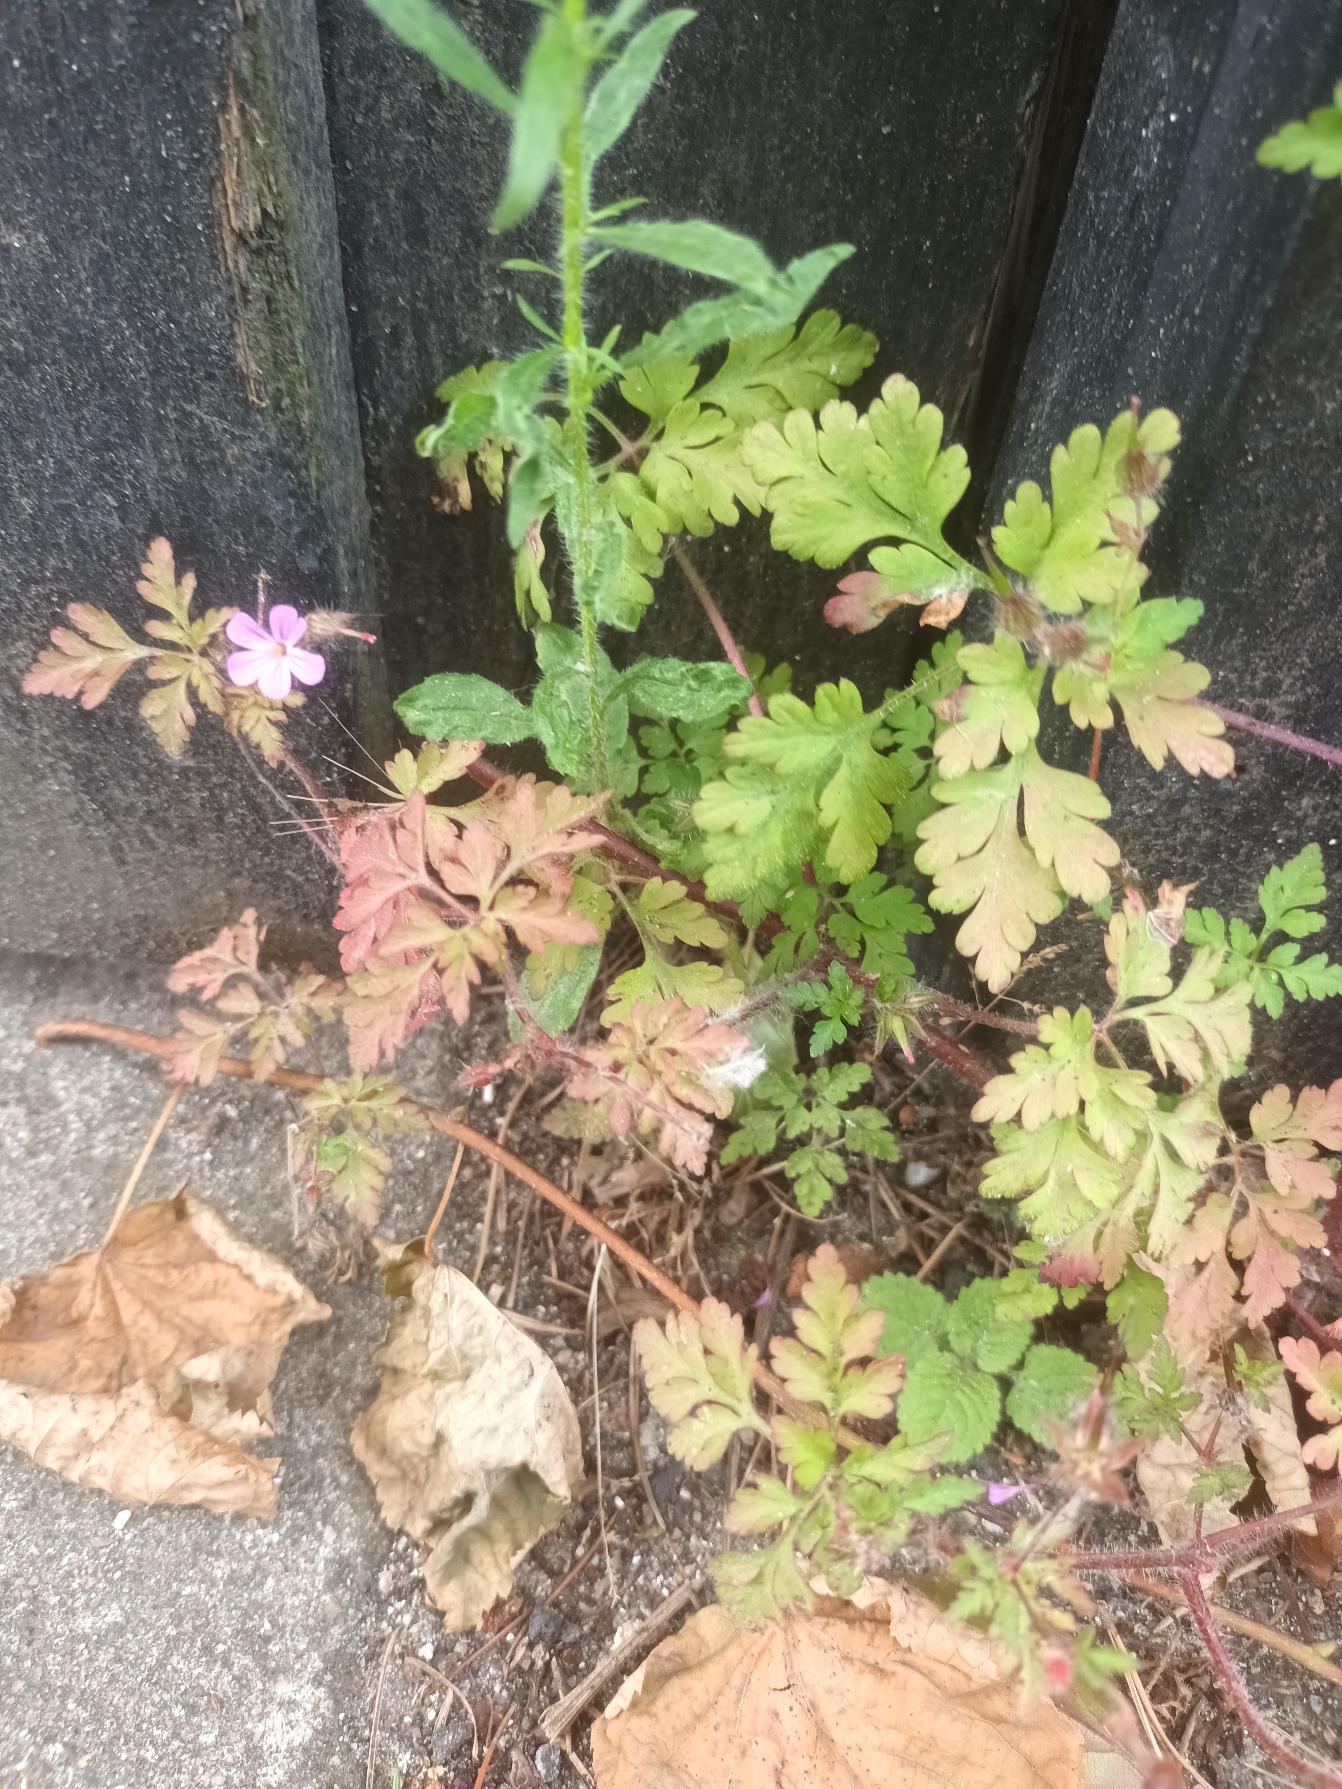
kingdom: Plantae
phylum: Tracheophyta
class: Magnoliopsida
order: Geraniales
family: Geraniaceae
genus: Geranium
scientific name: Geranium robertianum
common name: Stinkende storkenæb
